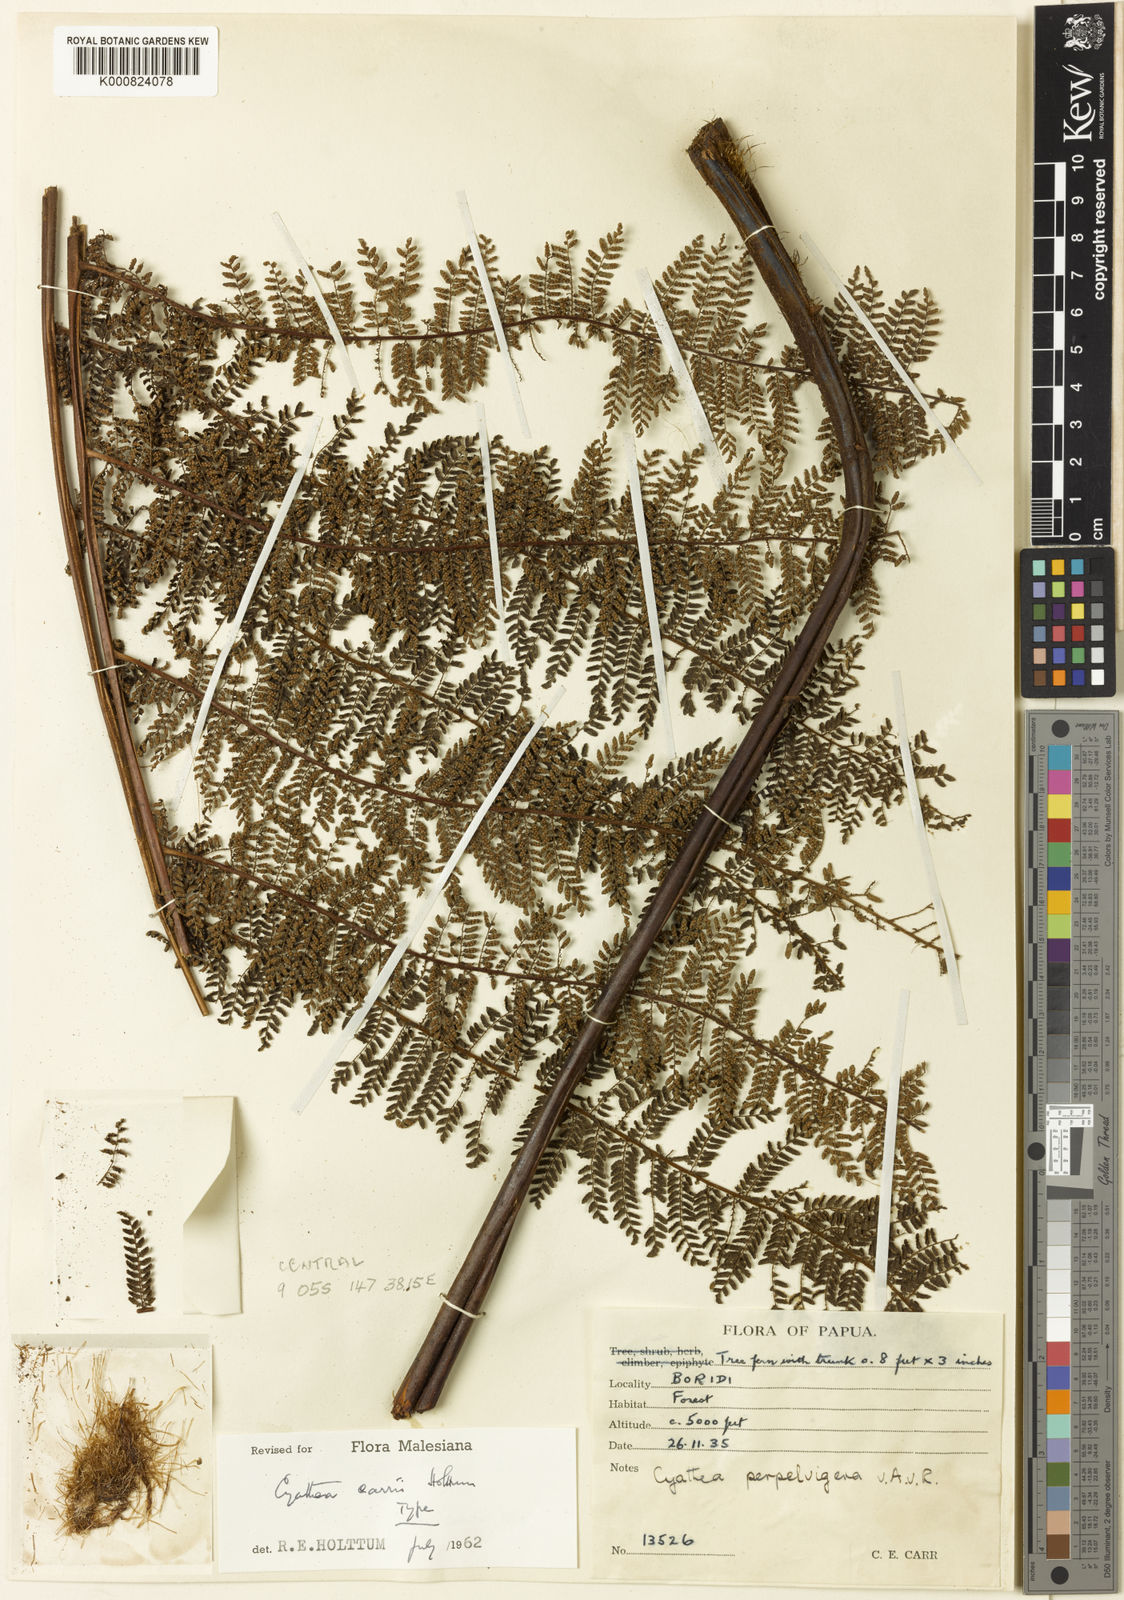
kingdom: Plantae
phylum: Tracheophyta
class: Polypodiopsida
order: Cyatheales
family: Cyatheaceae
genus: Sphaeropteris
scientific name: Sphaeropteris carrii
